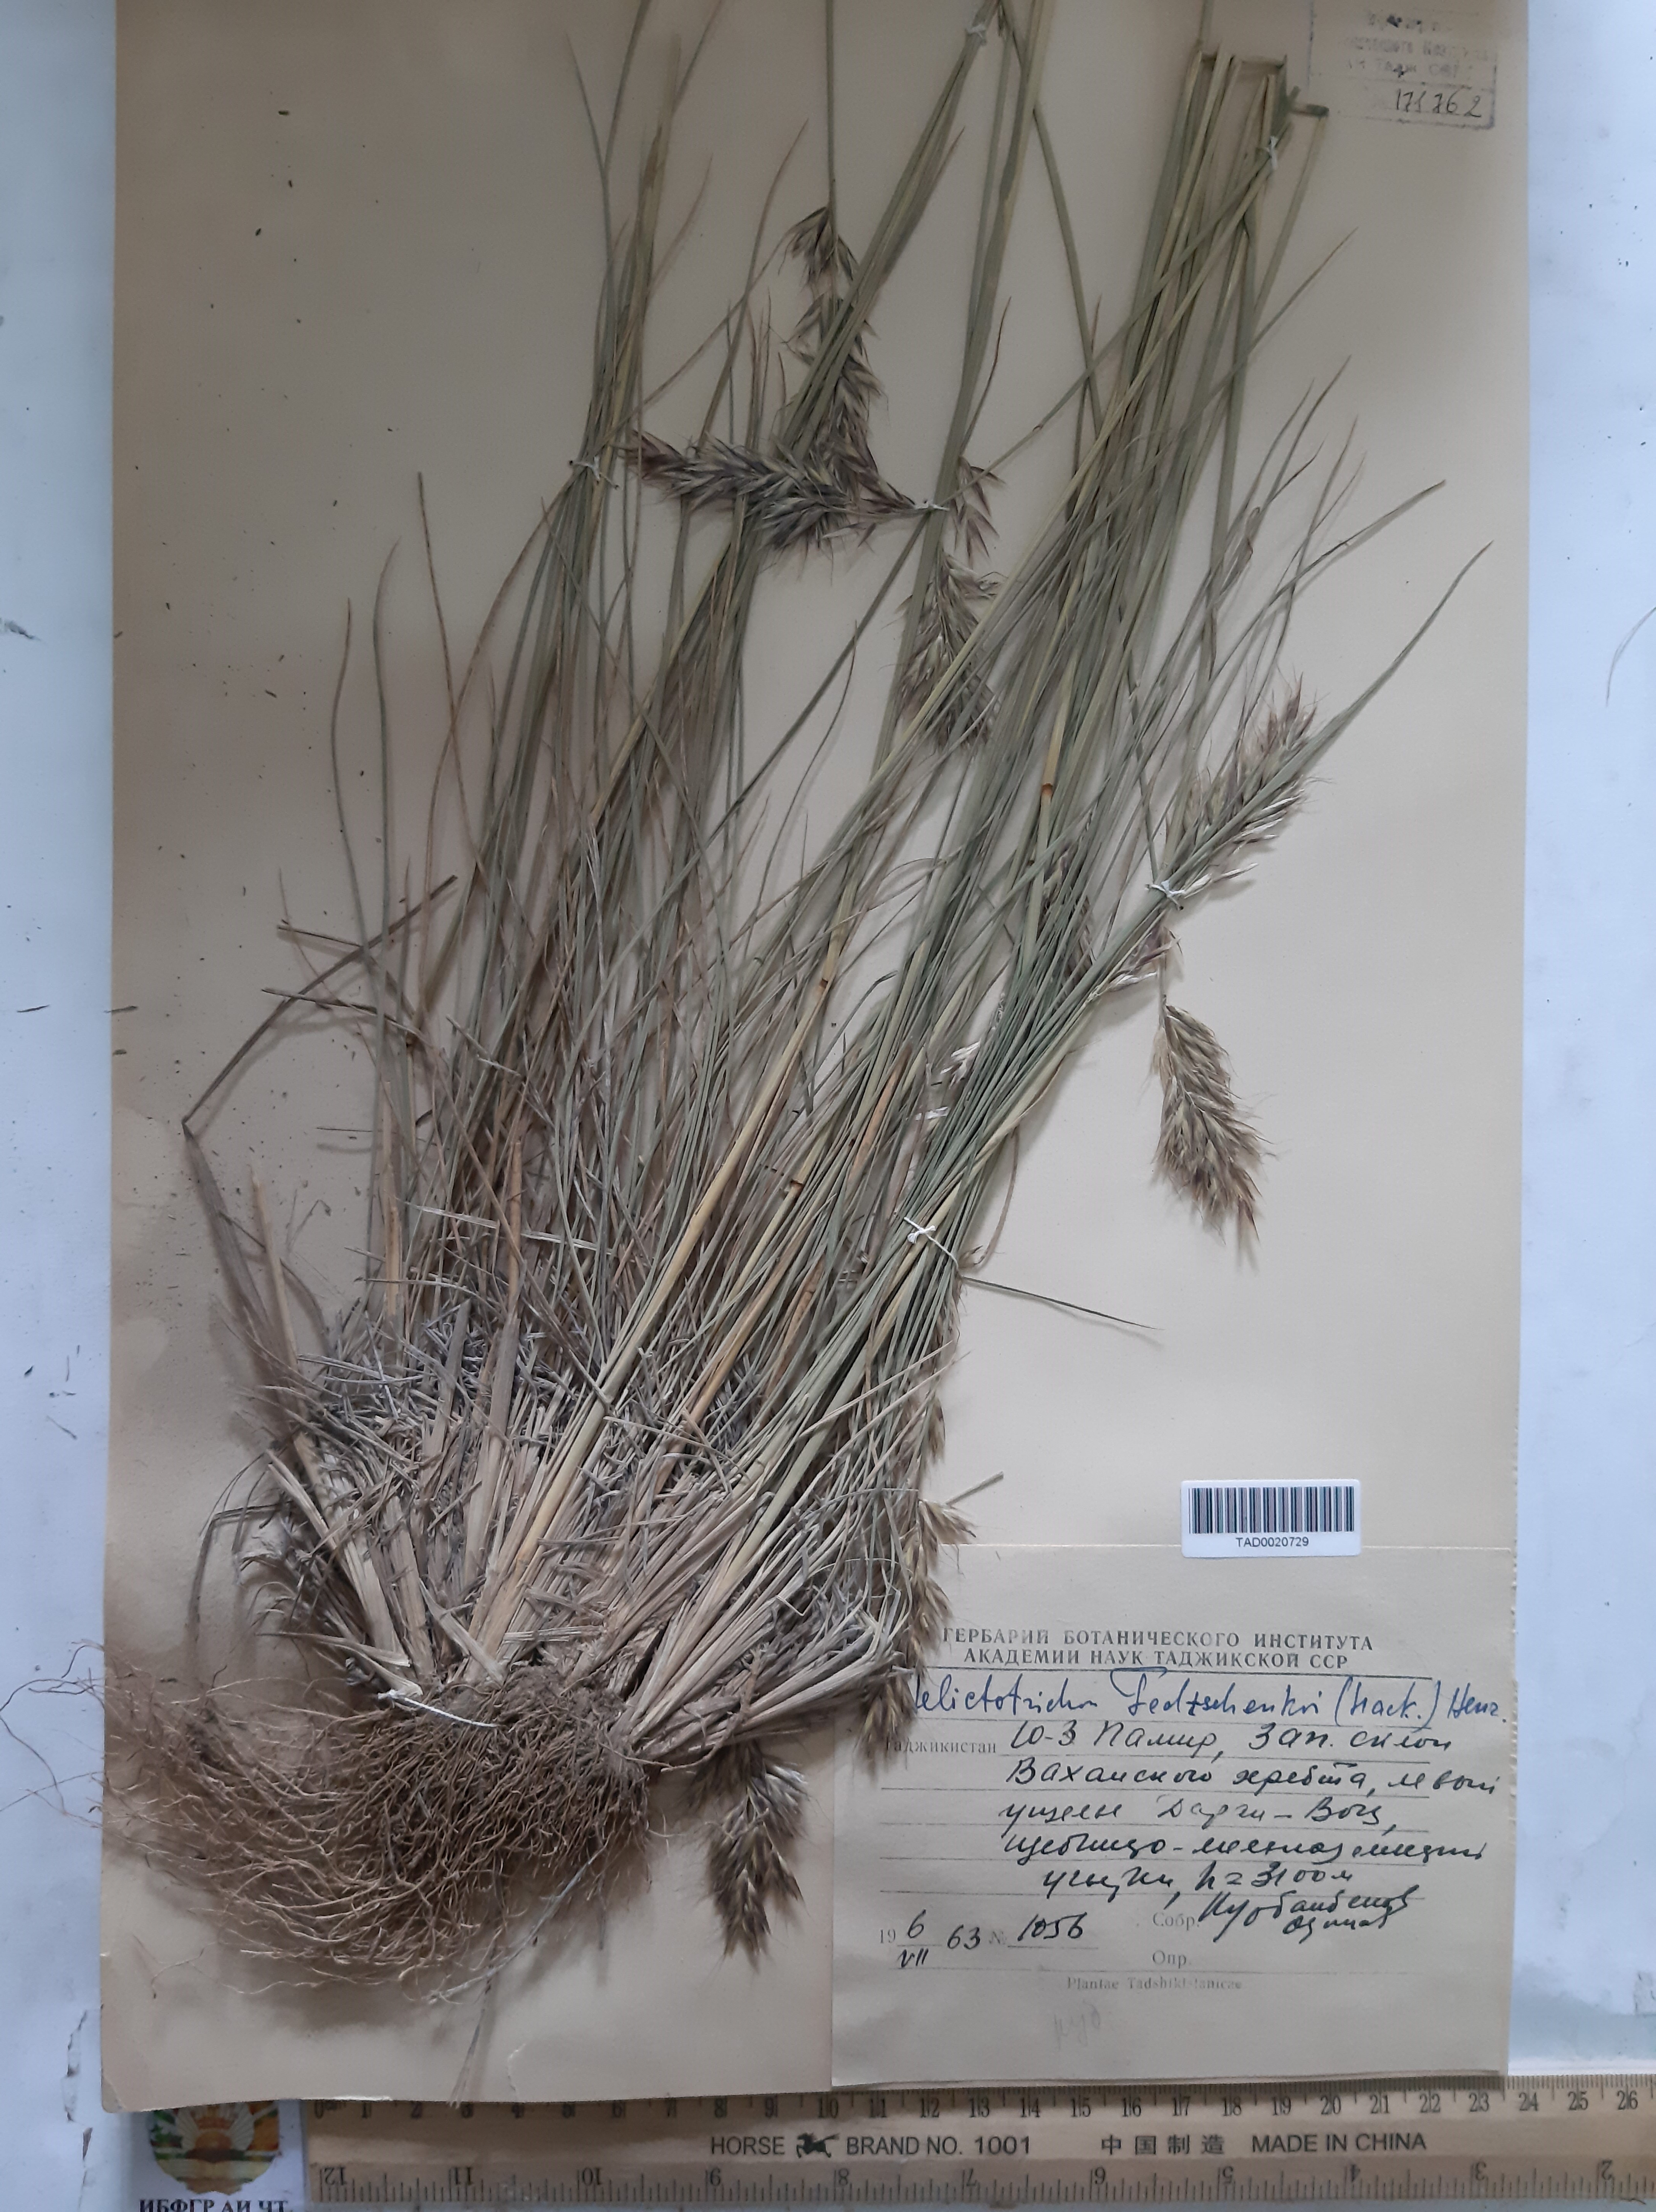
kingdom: Plantae
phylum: Tracheophyta
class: Liliopsida
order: Poales
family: Poaceae
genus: Helictotrichon
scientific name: Helictotrichon fedtschenkoi
